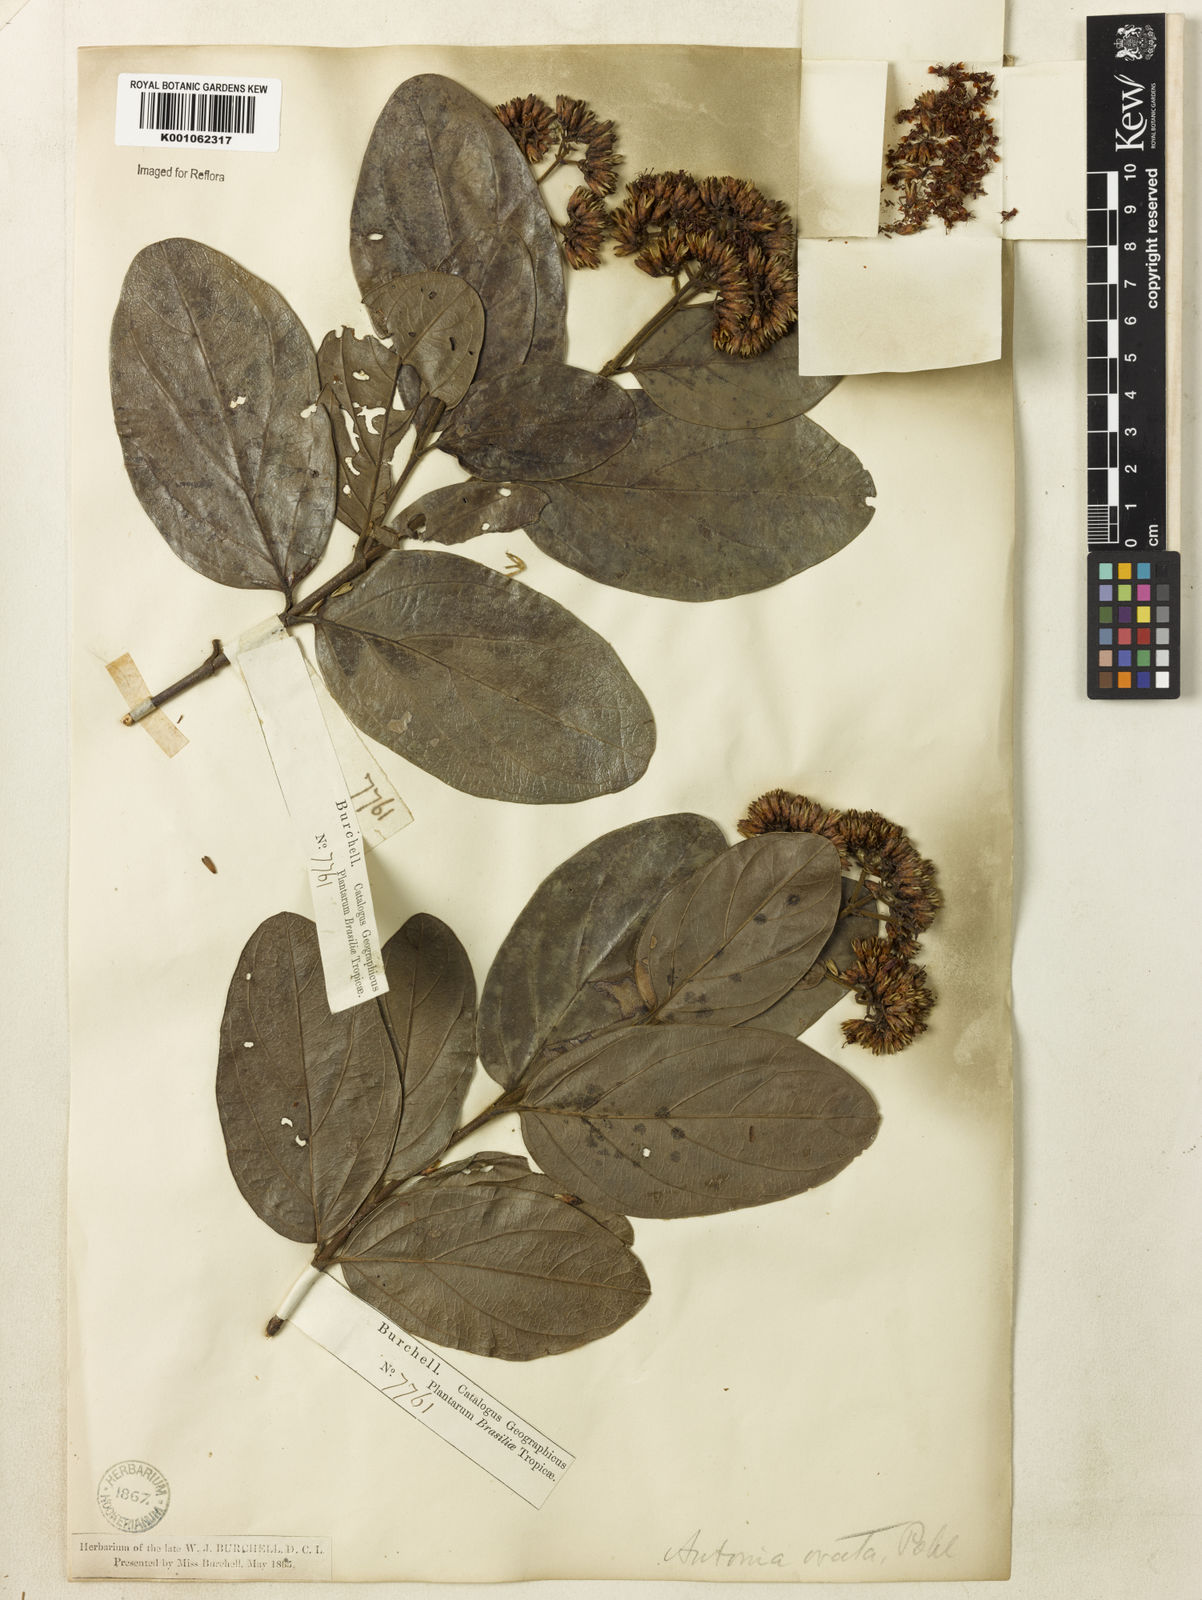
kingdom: Plantae
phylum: Tracheophyta
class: Magnoliopsida
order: Gentianales
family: Loganiaceae
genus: Antonia
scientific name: Antonia ovata
